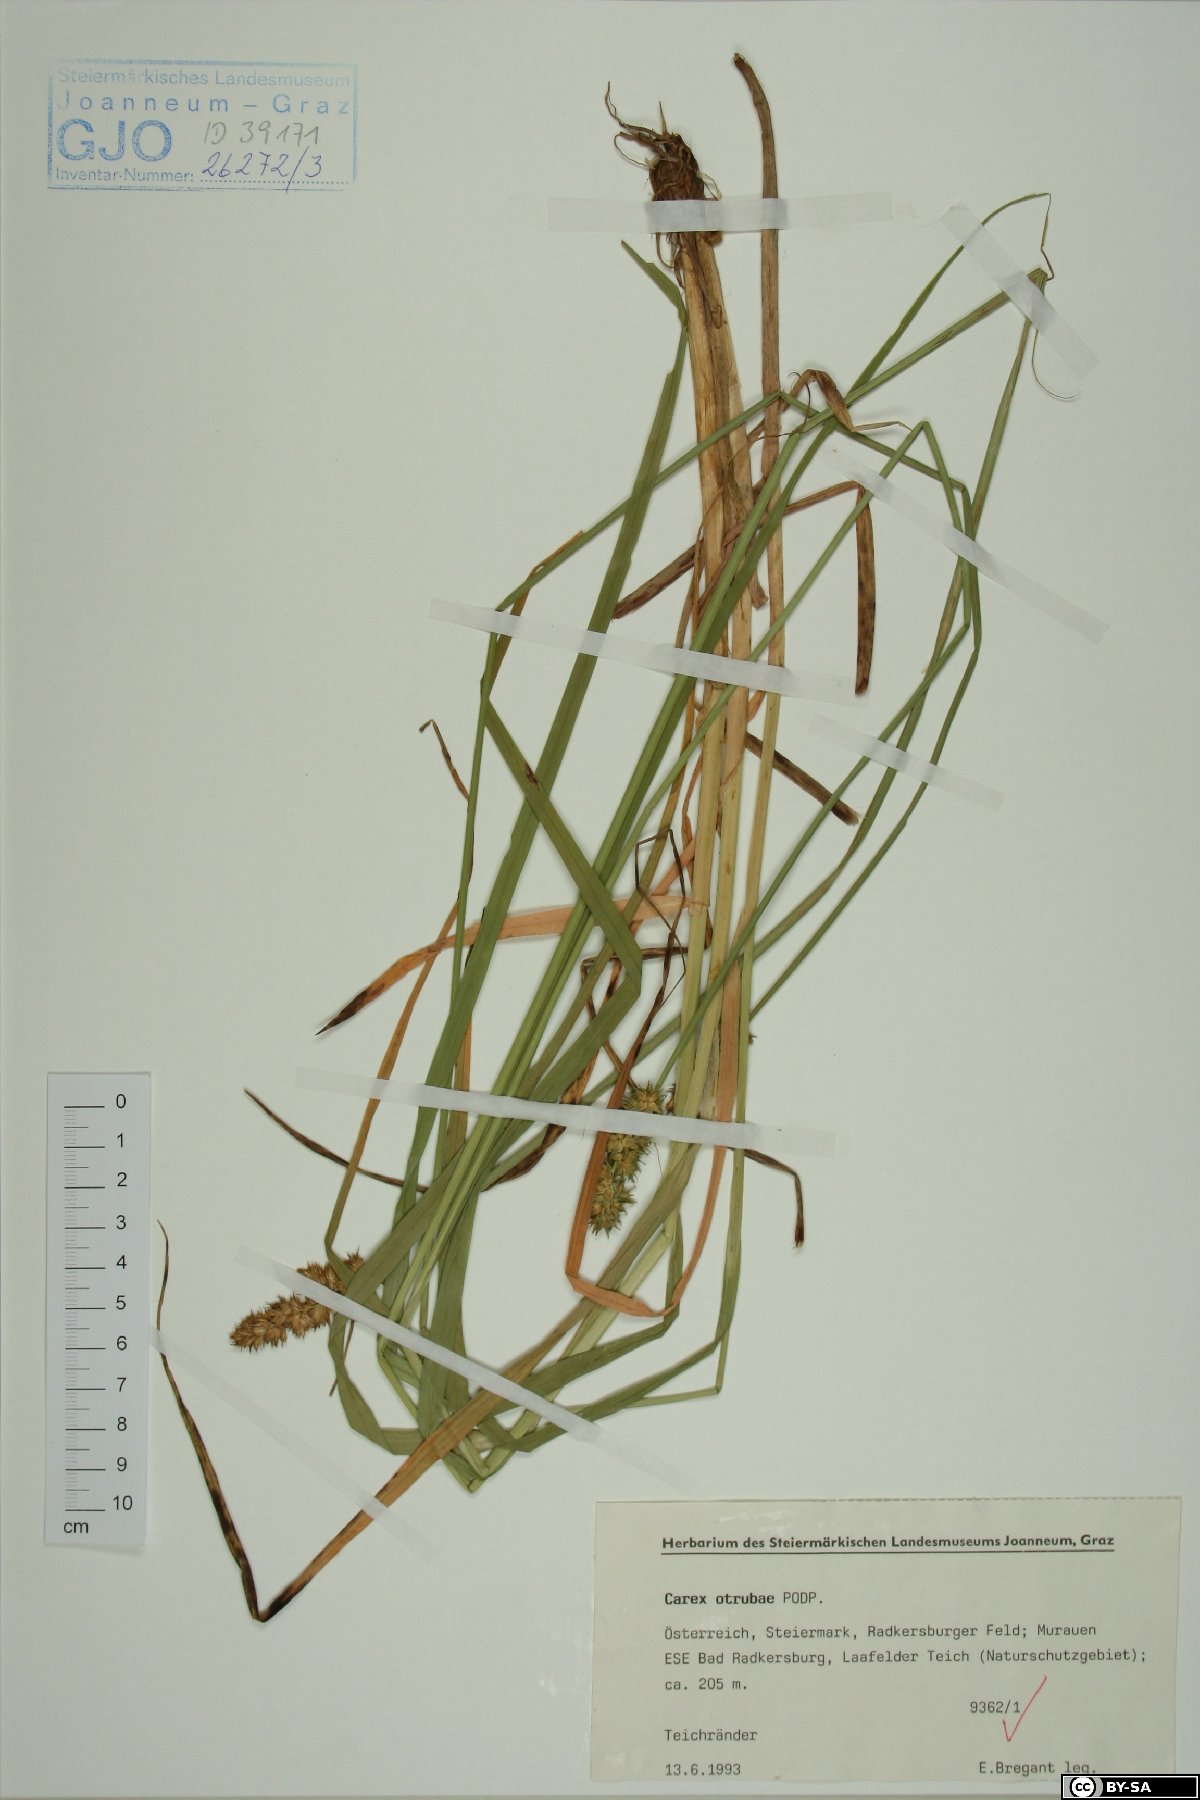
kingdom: Plantae
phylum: Tracheophyta
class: Liliopsida
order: Poales
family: Cyperaceae
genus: Carex
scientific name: Carex otrubae
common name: False fox-sedge
